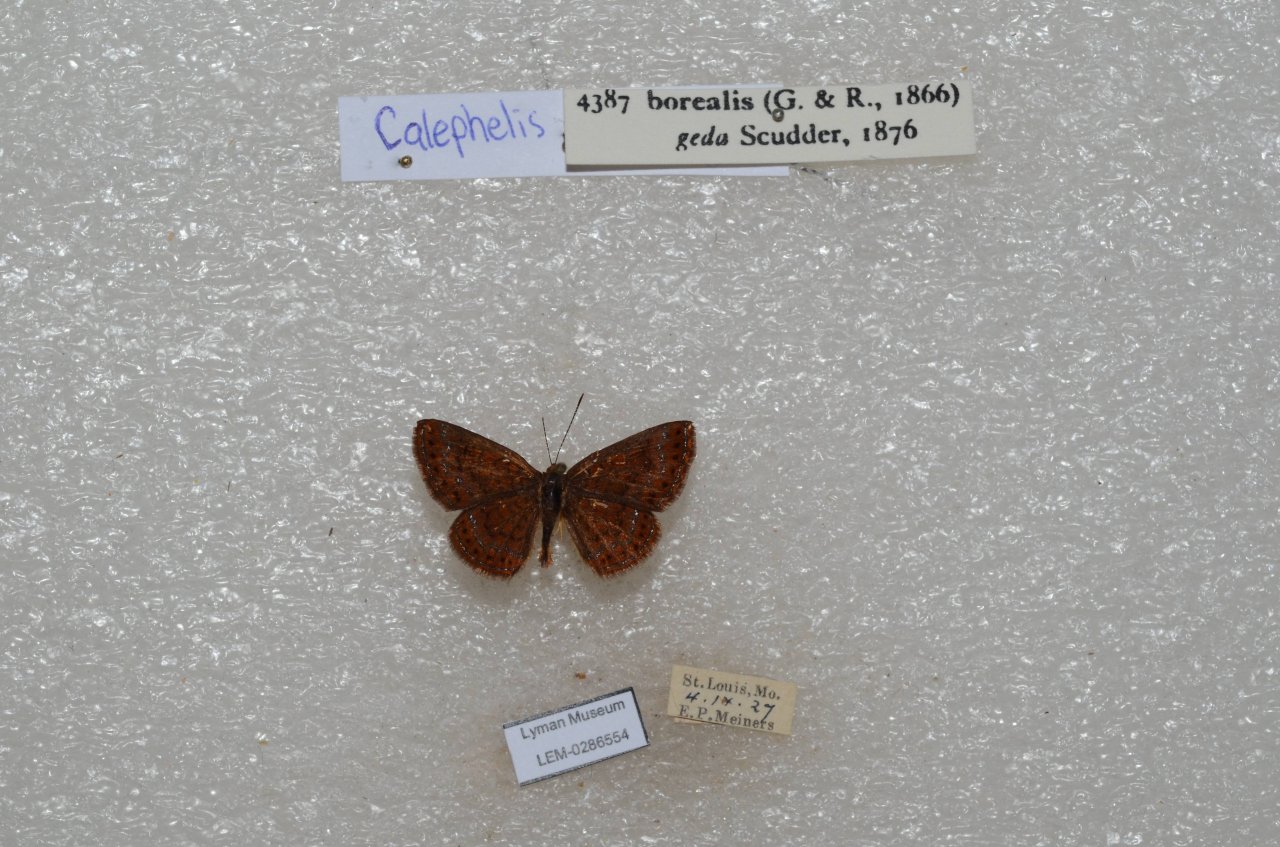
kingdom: Animalia
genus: Calephelis
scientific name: Calephelis borealis
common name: Northern Metalmark
